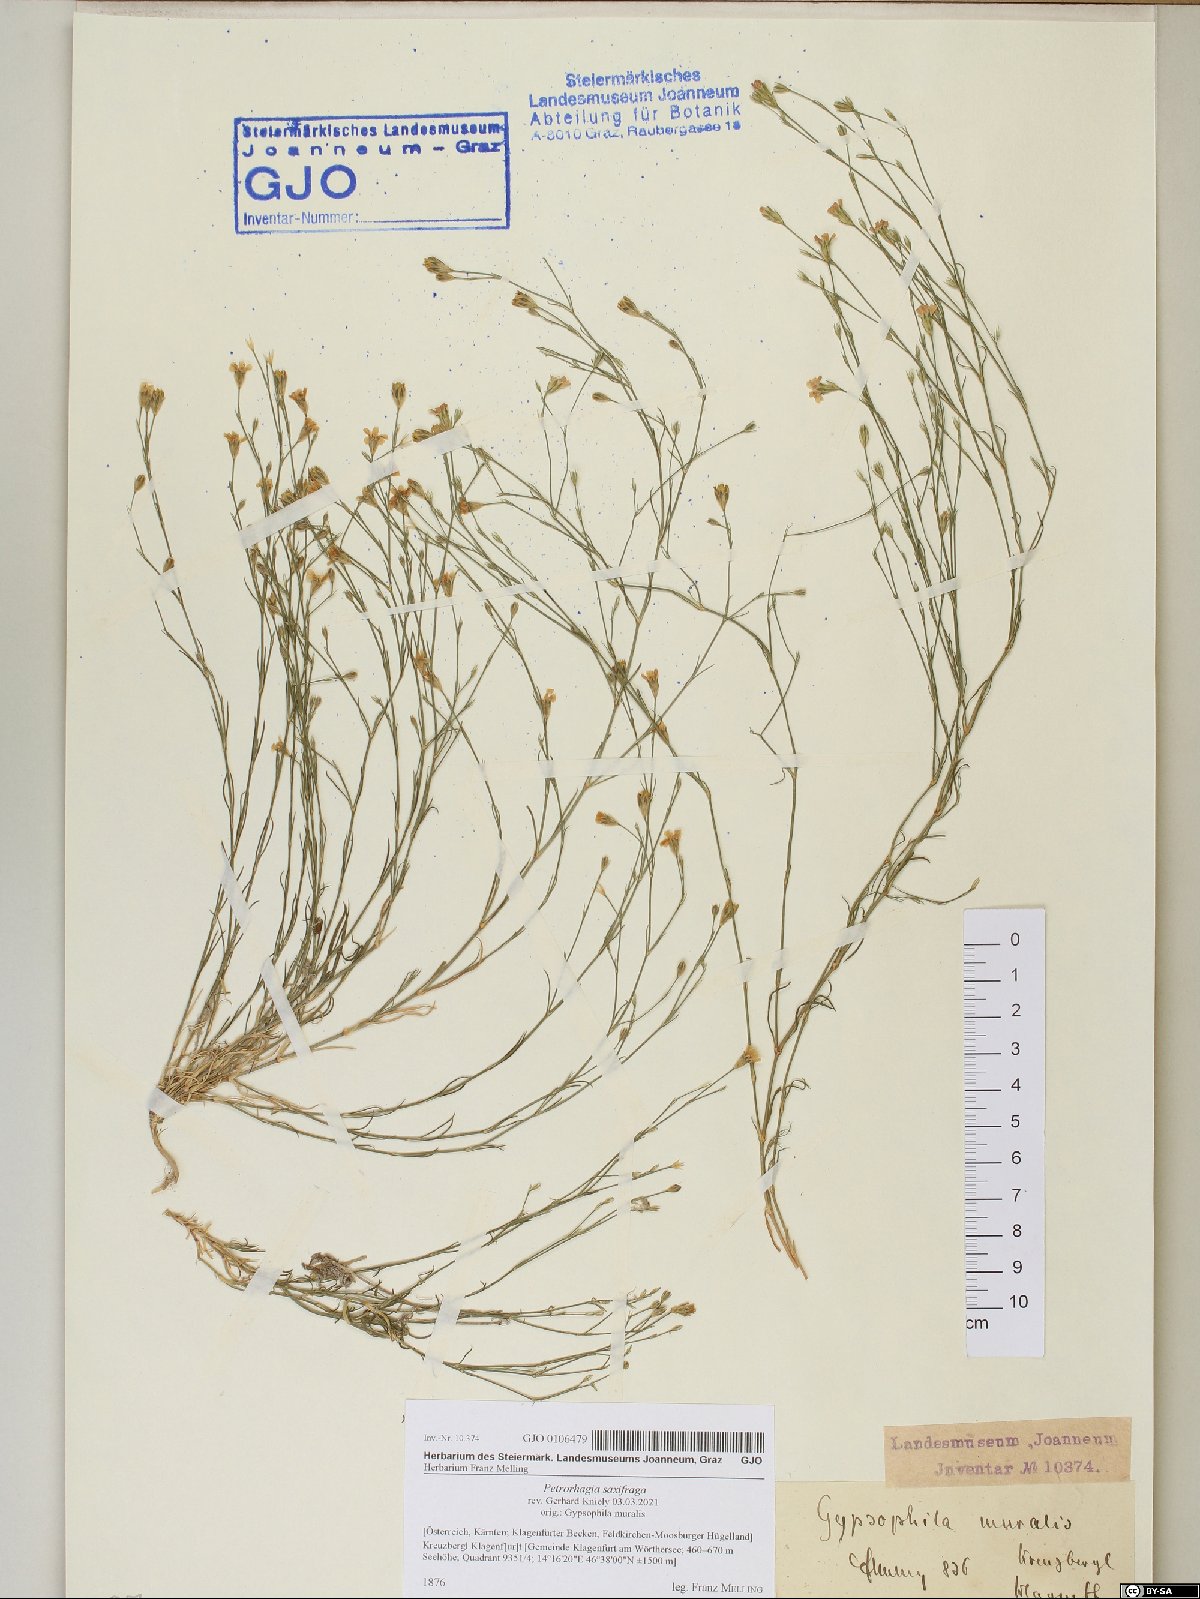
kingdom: Plantae
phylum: Tracheophyta
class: Magnoliopsida
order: Caryophyllales
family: Caryophyllaceae
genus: Petrorhagia
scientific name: Petrorhagia saxifraga
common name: Tunicflower
